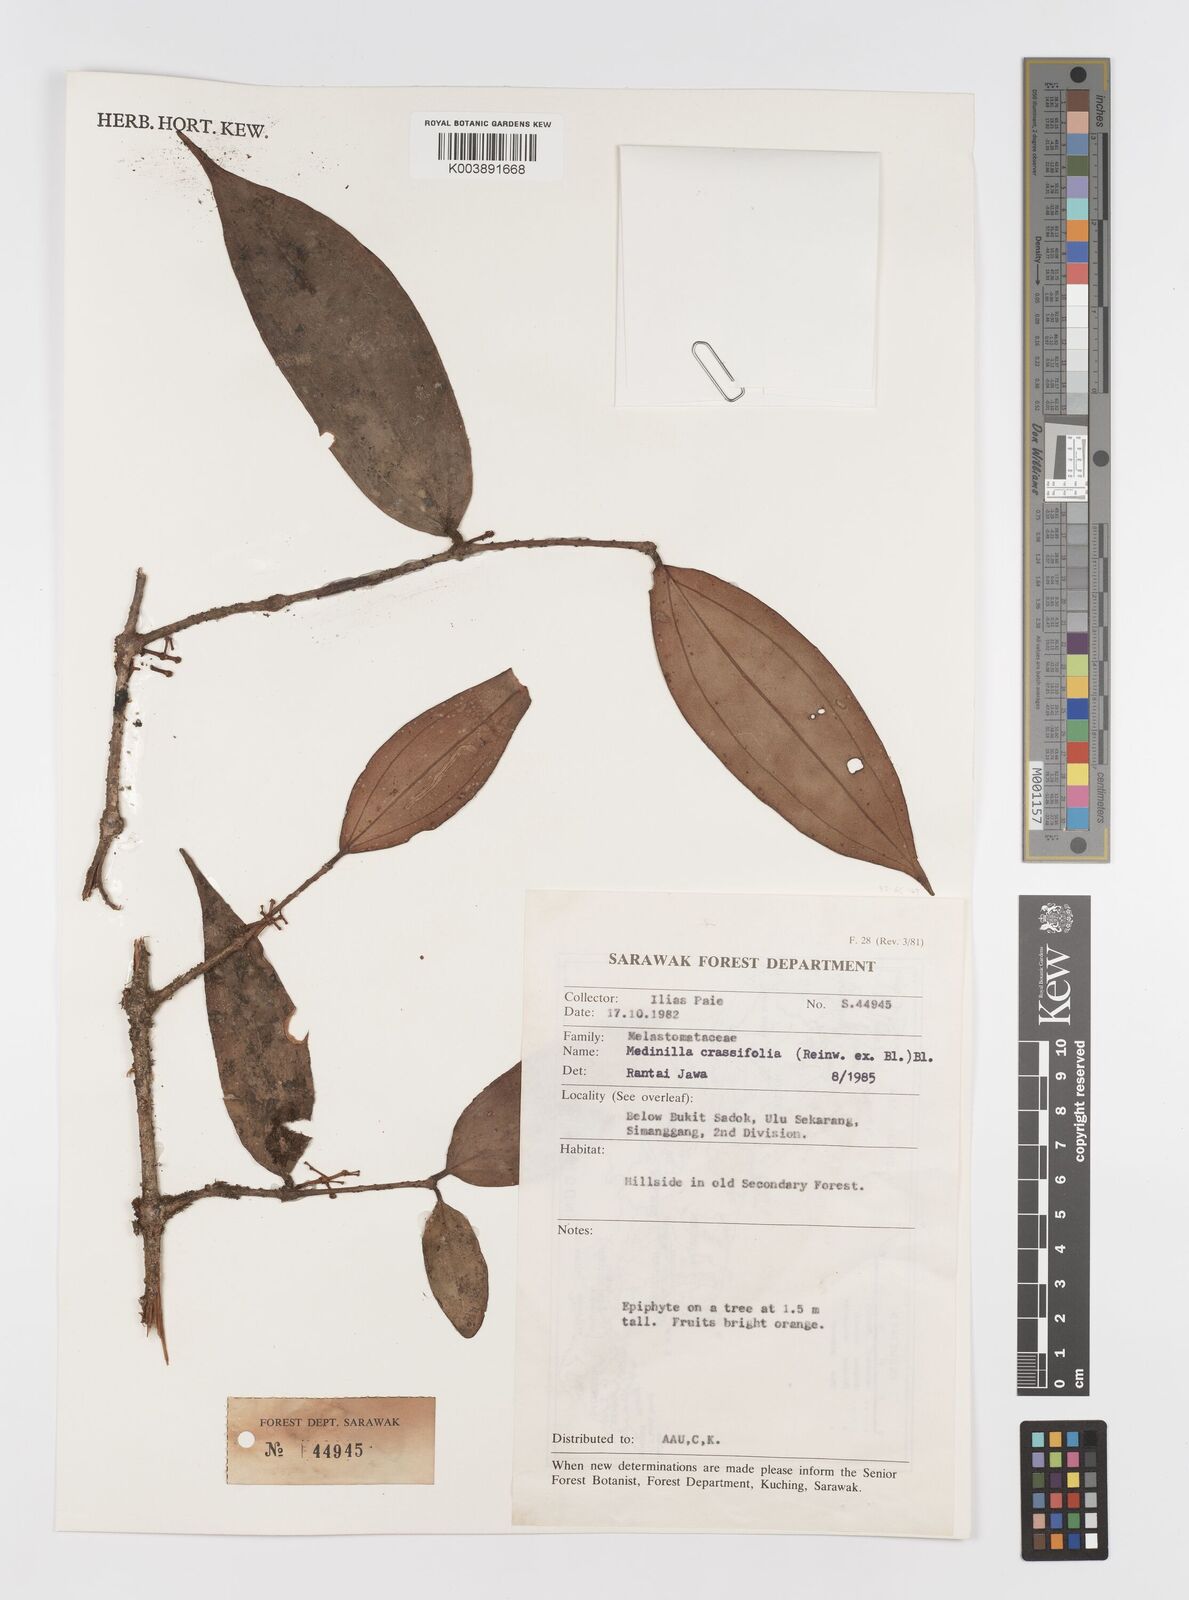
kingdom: Plantae
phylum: Tracheophyta
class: Magnoliopsida
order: Myrtales
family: Melastomataceae
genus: Medinilla
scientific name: Medinilla crassifolia
